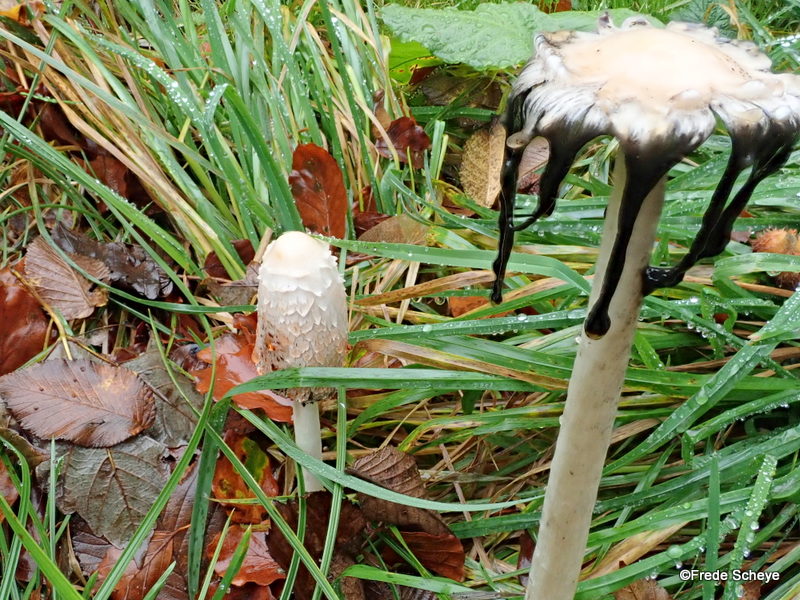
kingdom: Fungi
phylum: Basidiomycota
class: Agaricomycetes
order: Agaricales
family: Agaricaceae
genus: Coprinus
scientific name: Coprinus comatus
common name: stor parykhat
